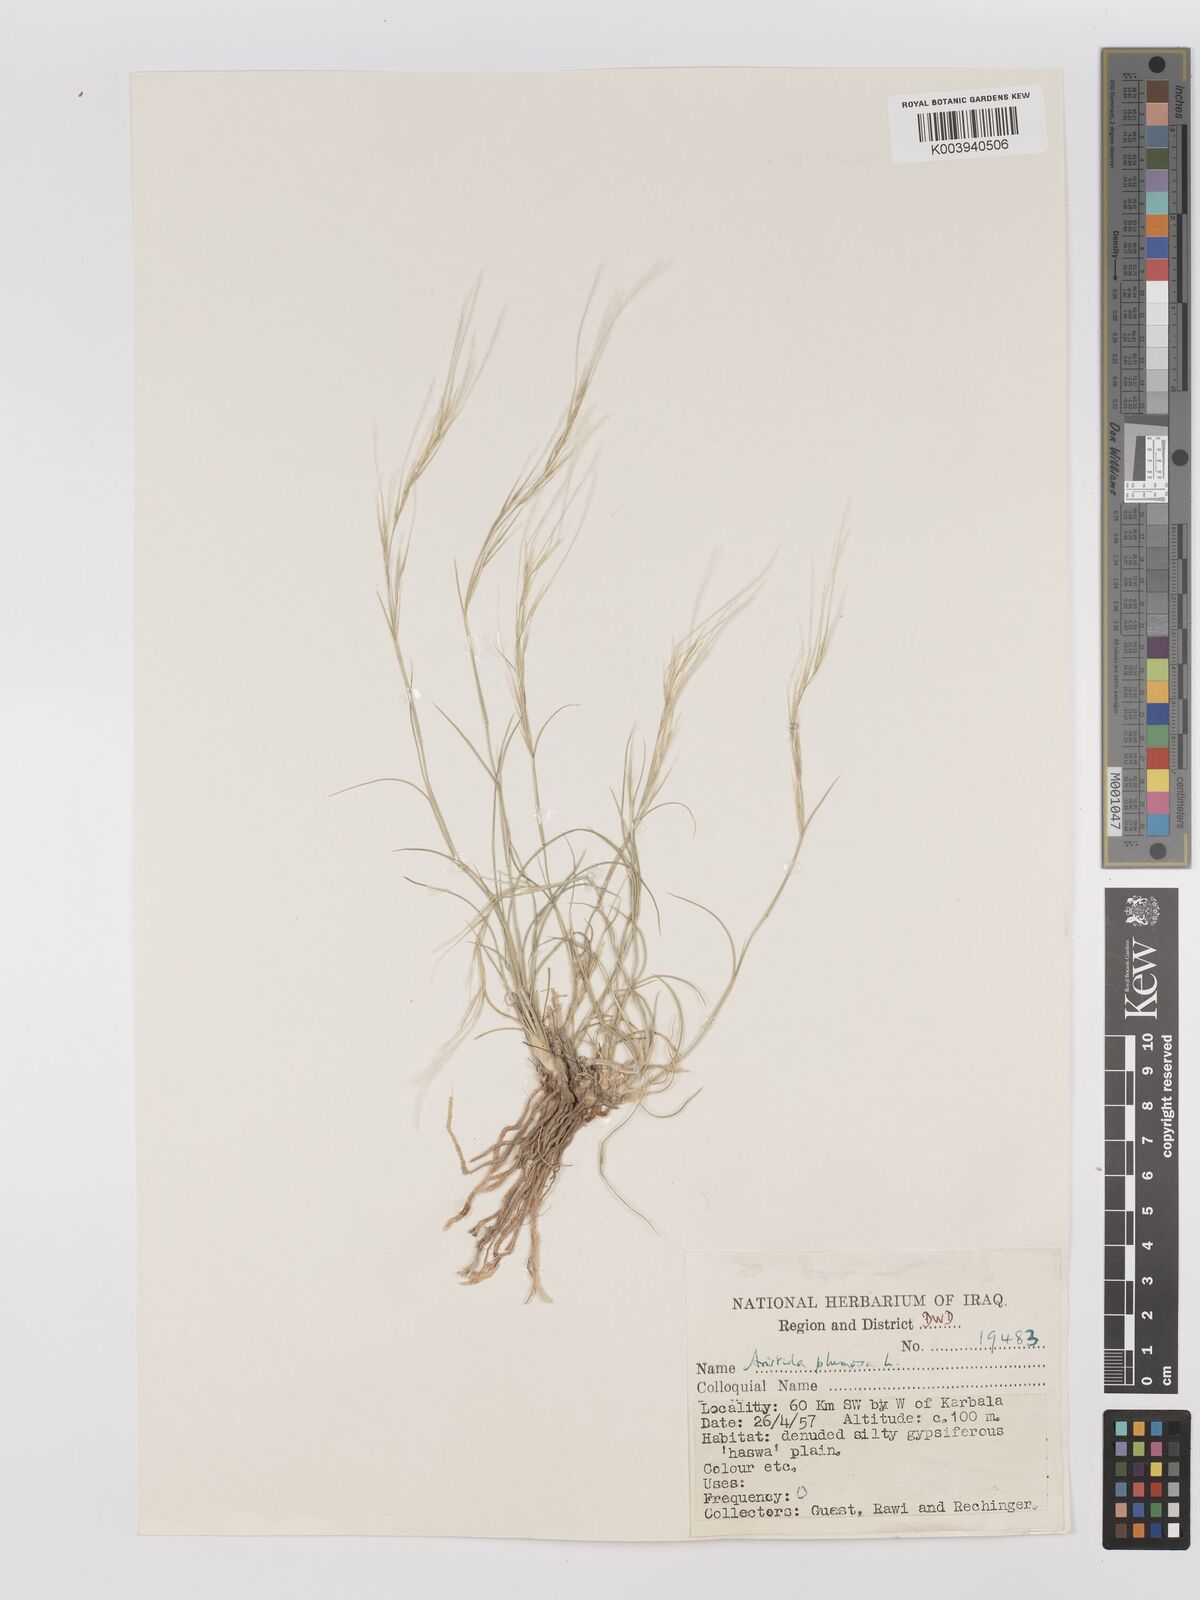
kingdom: Plantae
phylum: Tracheophyta
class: Liliopsida
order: Poales
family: Poaceae
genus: Stipagrostis
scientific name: Stipagrostis plumosa
